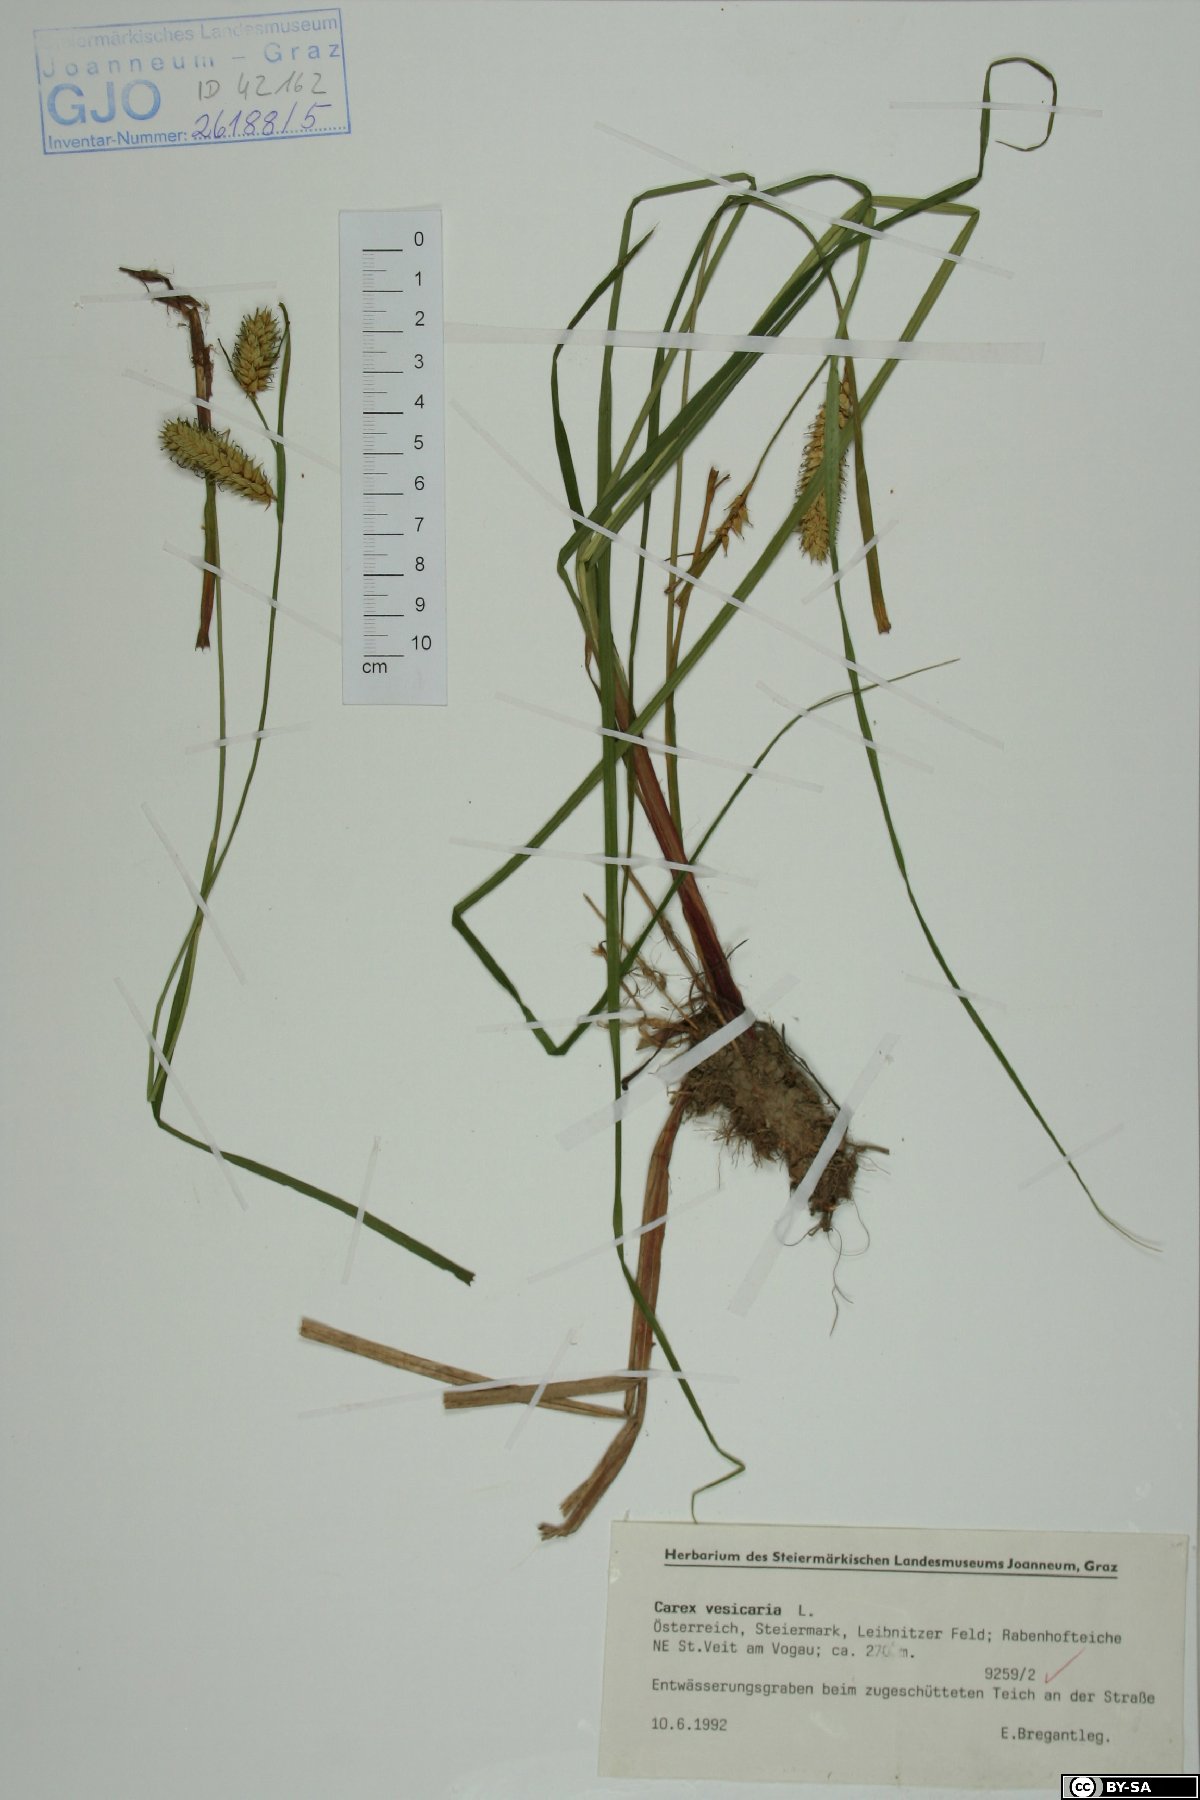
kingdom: Plantae
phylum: Tracheophyta
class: Liliopsida
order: Poales
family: Cyperaceae
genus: Carex
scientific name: Carex vesicaria
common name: Bladder-sedge
